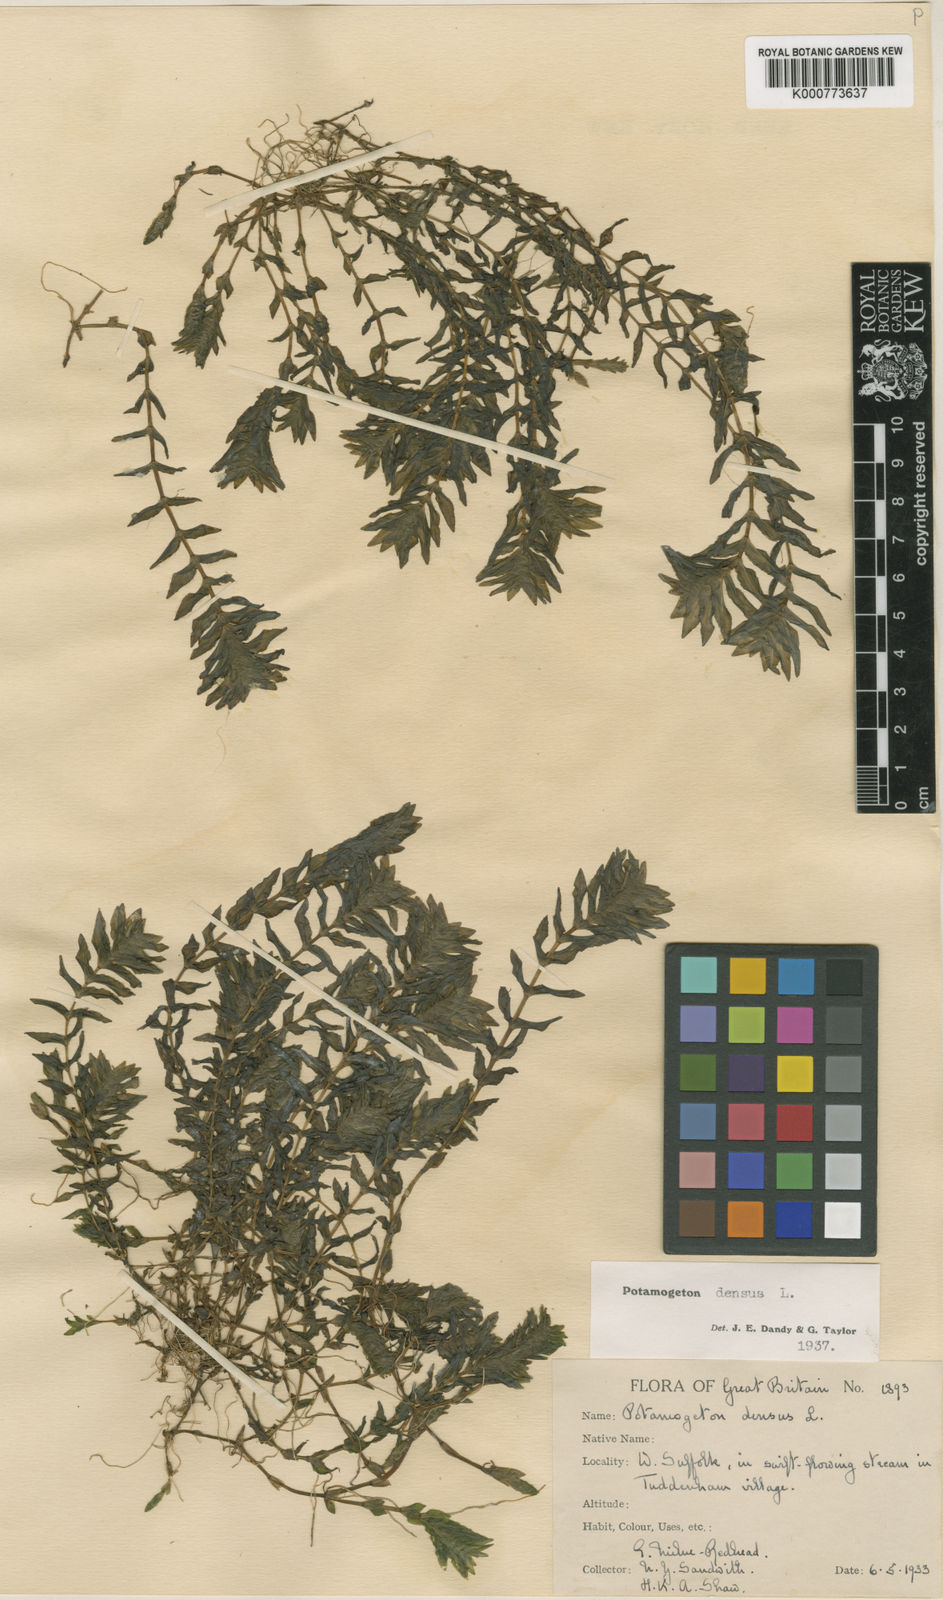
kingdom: Plantae
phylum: Tracheophyta
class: Liliopsida
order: Alismatales
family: Potamogetonaceae
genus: Groenlandia
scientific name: Groenlandia densa
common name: Opposite-leaved pondweed
